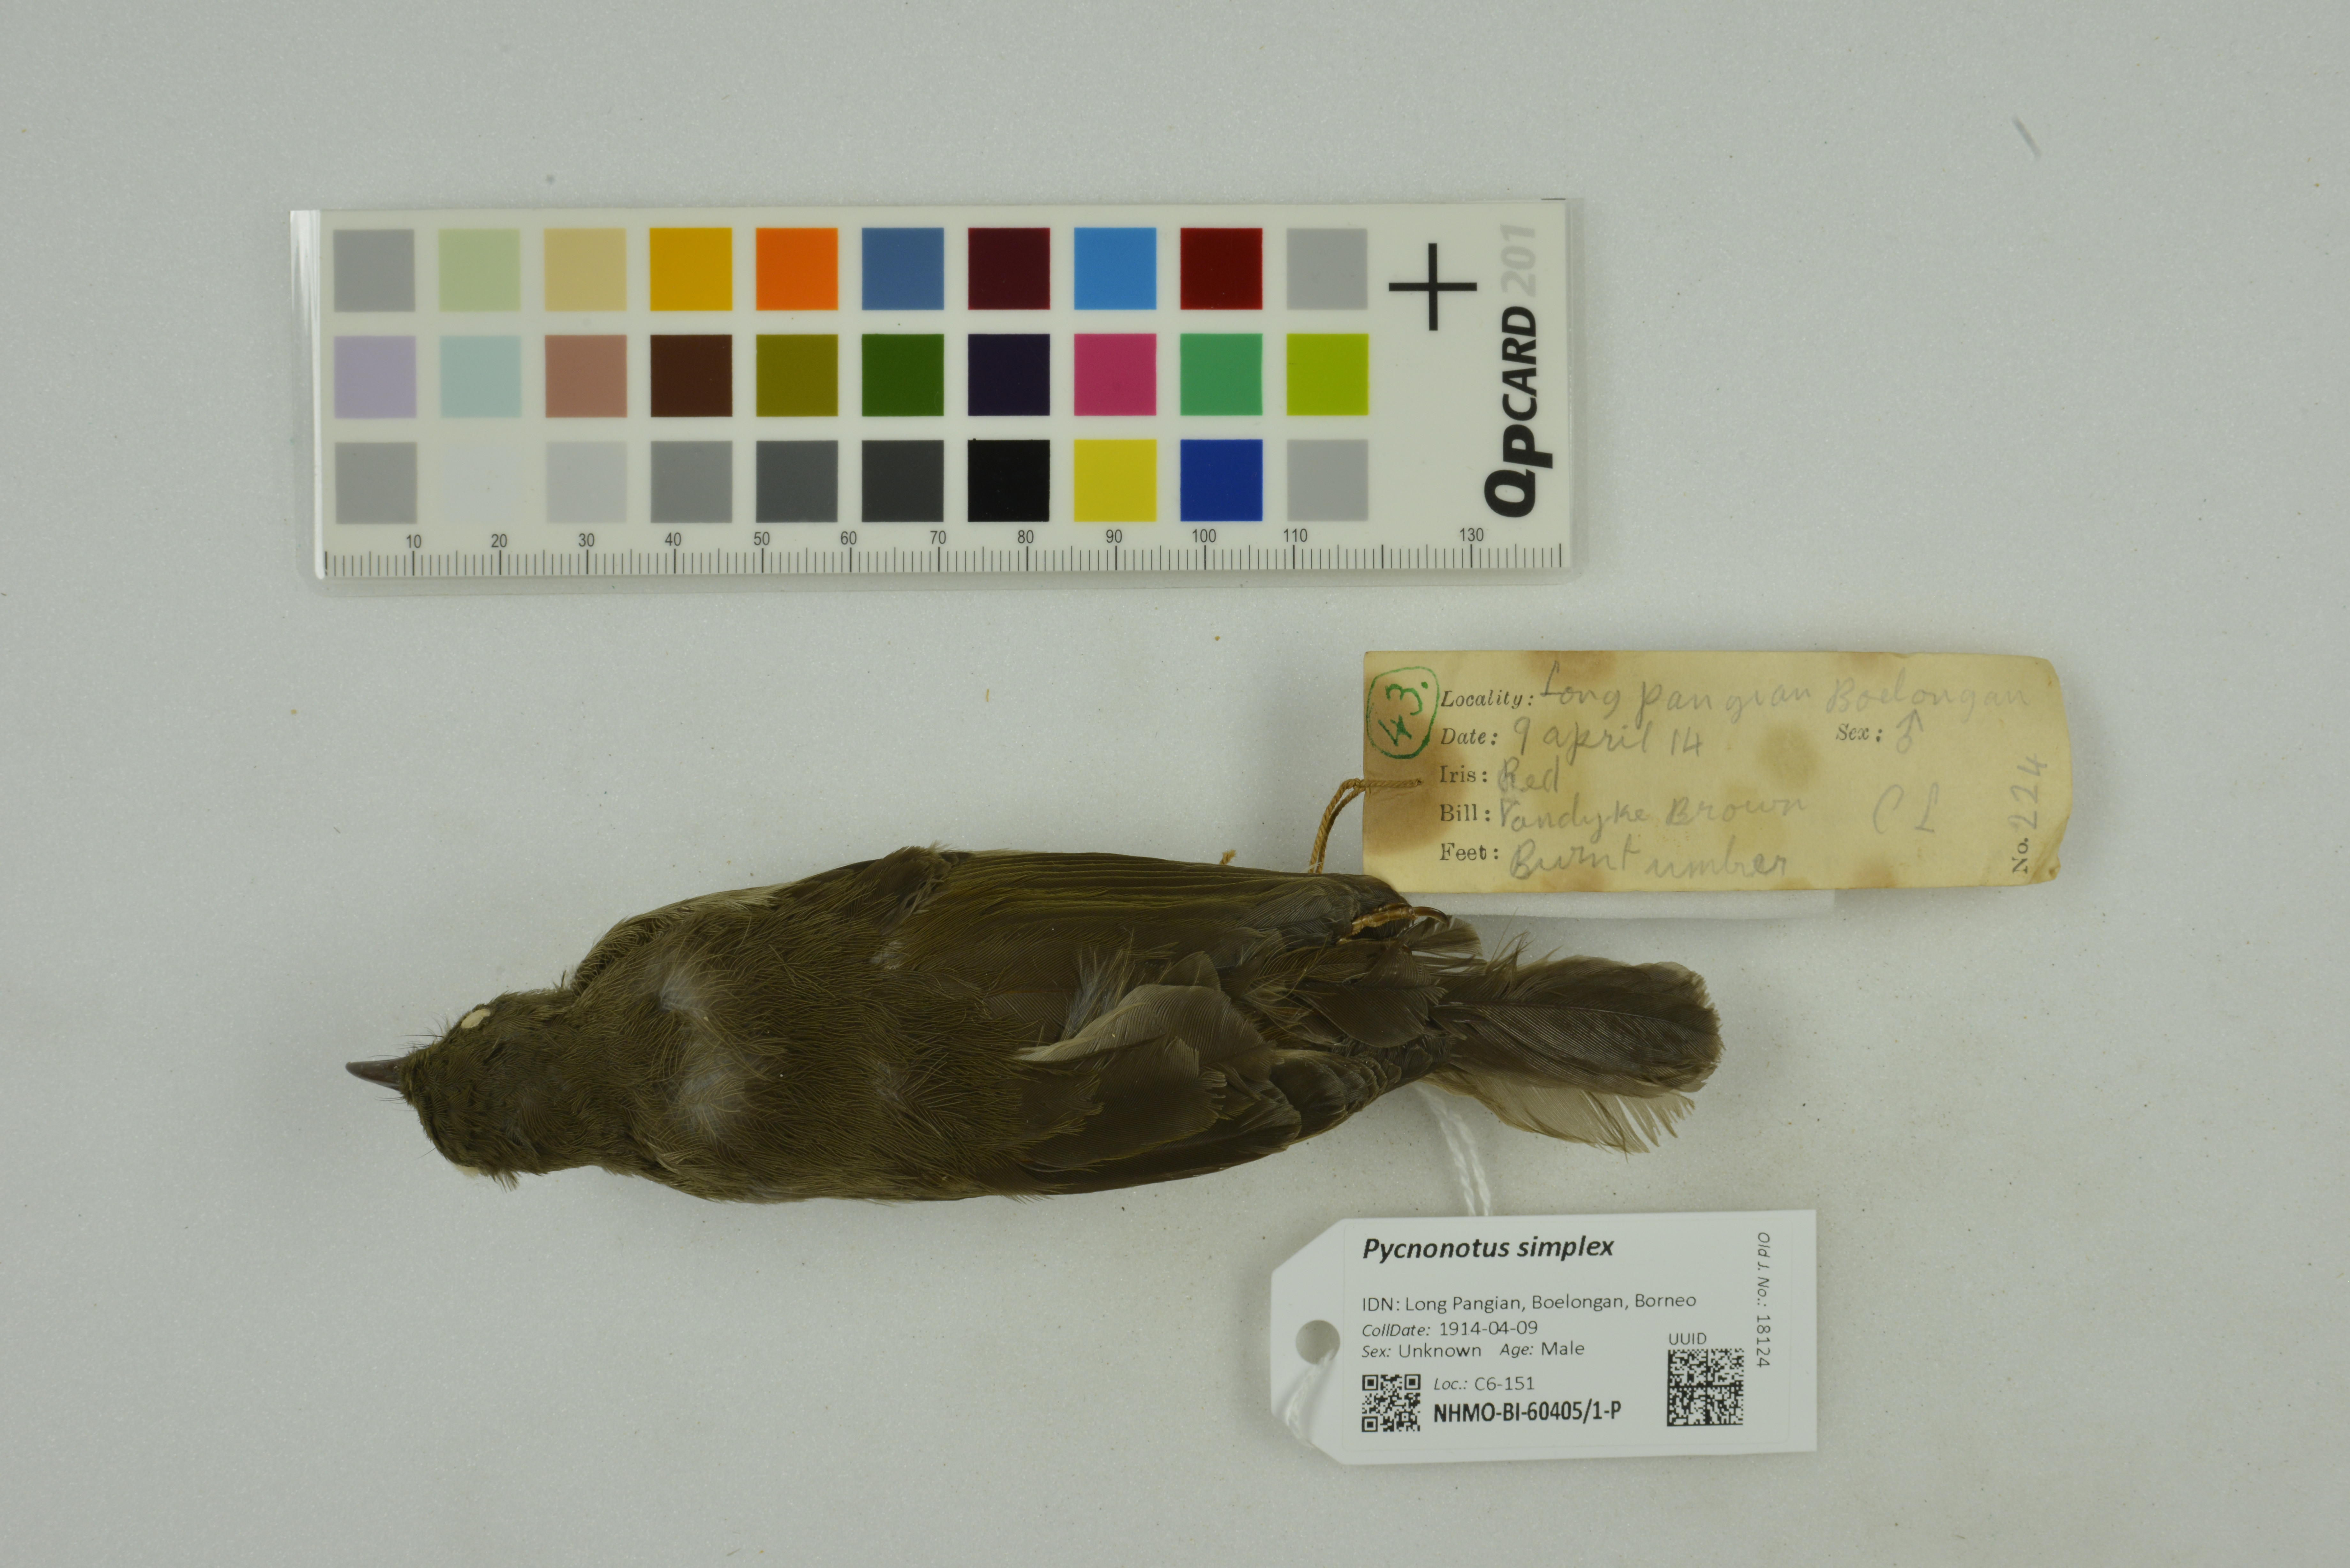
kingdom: Animalia
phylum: Chordata
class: Aves
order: Passeriformes
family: Pycnonotidae
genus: Pycnonotus
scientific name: Pycnonotus simplex
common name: Cream-vented bulbul
